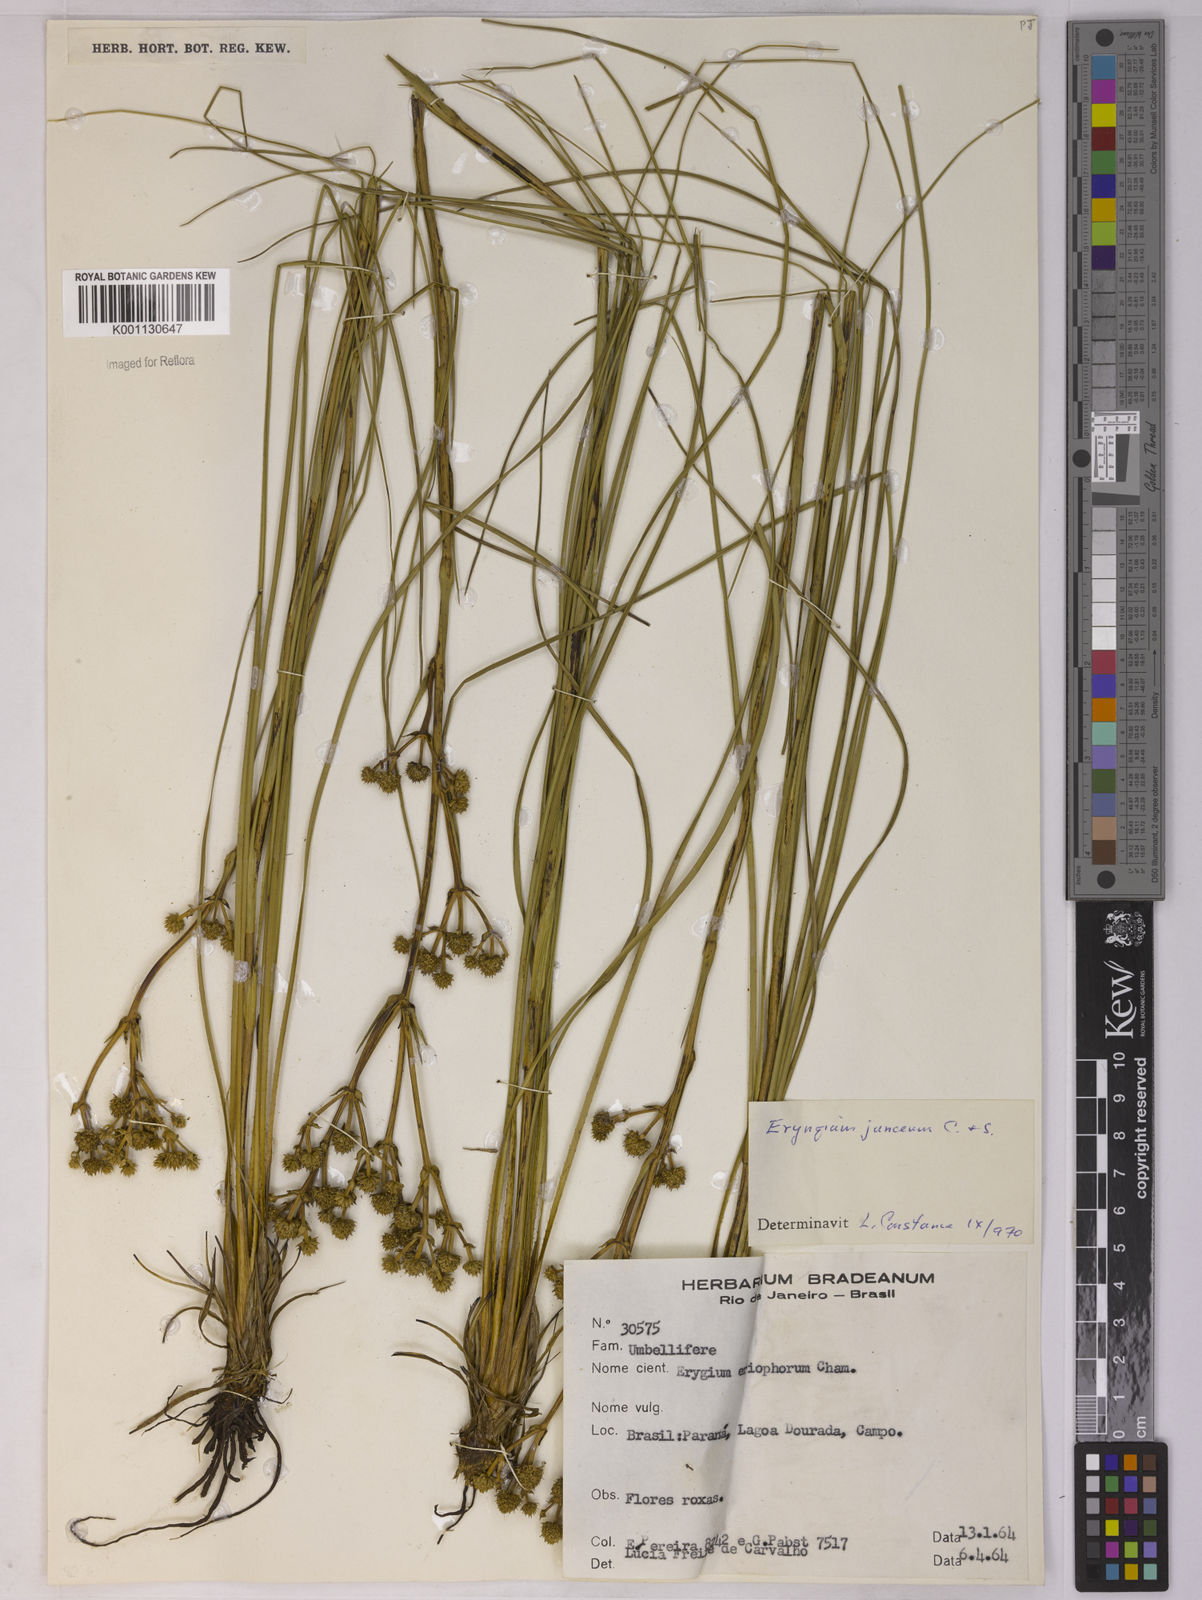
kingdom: Plantae
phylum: Tracheophyta
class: Magnoliopsida
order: Apiales
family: Apiaceae
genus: Eryngium
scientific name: Eryngium junceum
